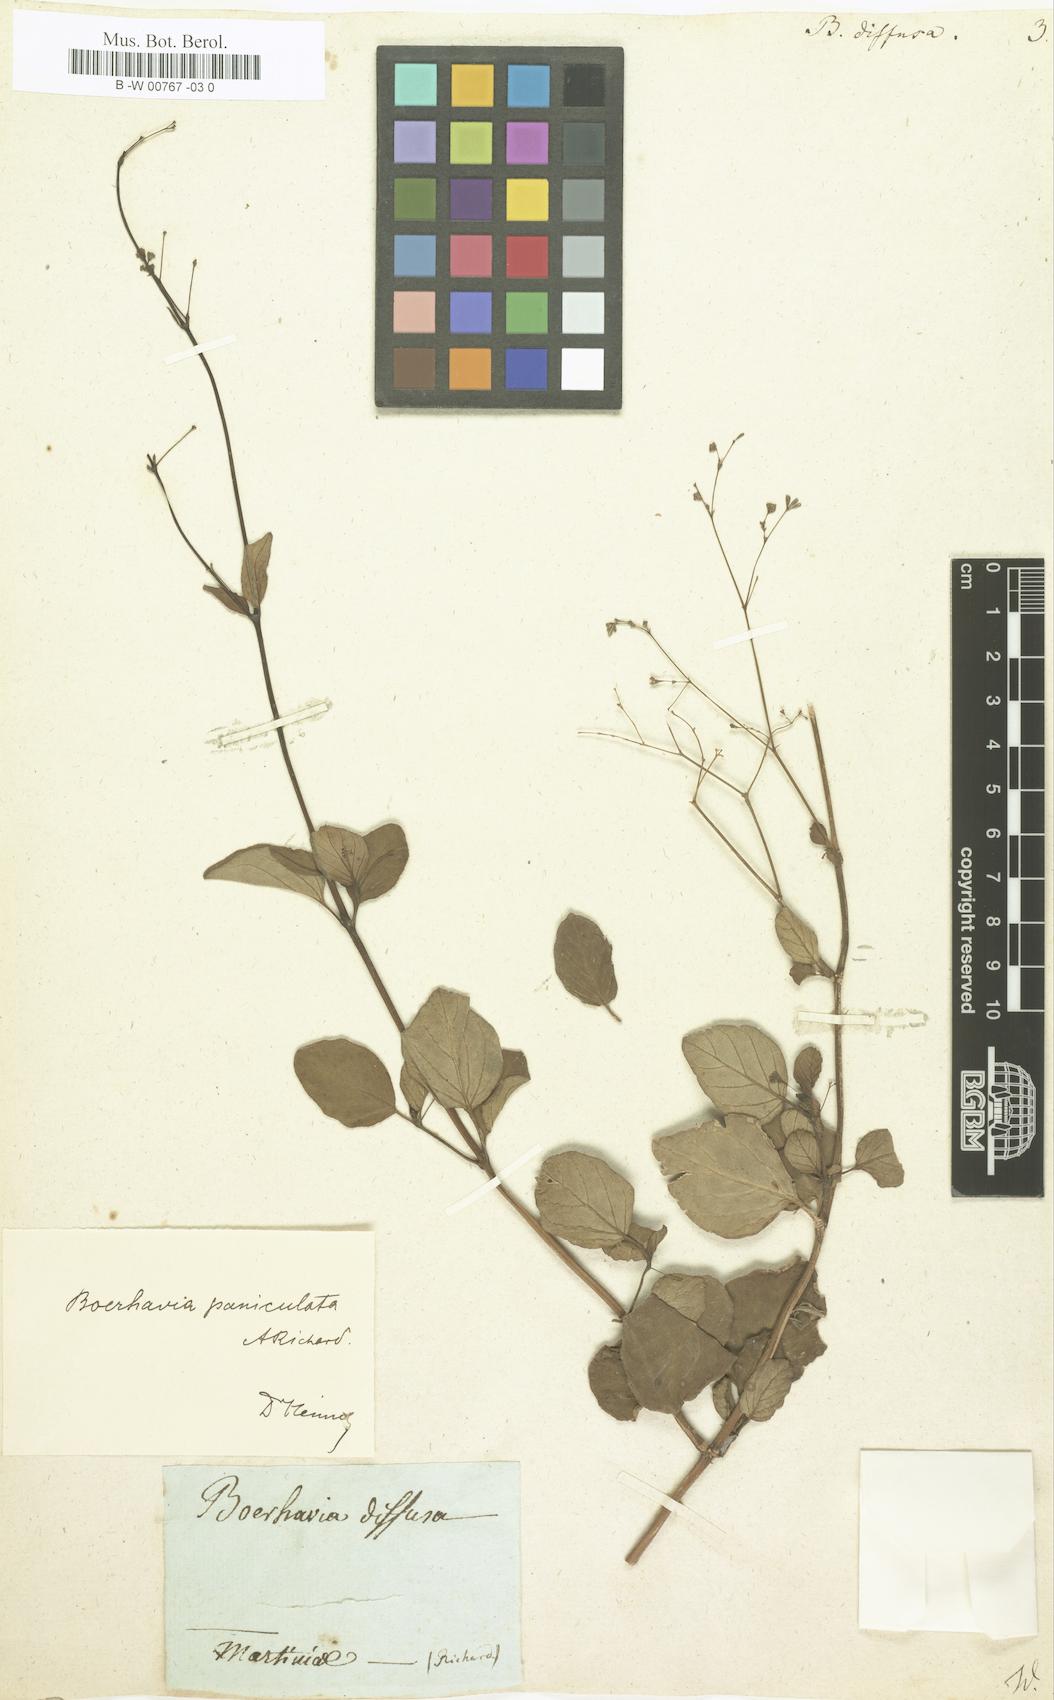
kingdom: Plantae
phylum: Tracheophyta
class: Magnoliopsida
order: Caryophyllales
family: Nyctaginaceae
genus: Boerhavia
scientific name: Boerhavia diffusa
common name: Red spiderling
